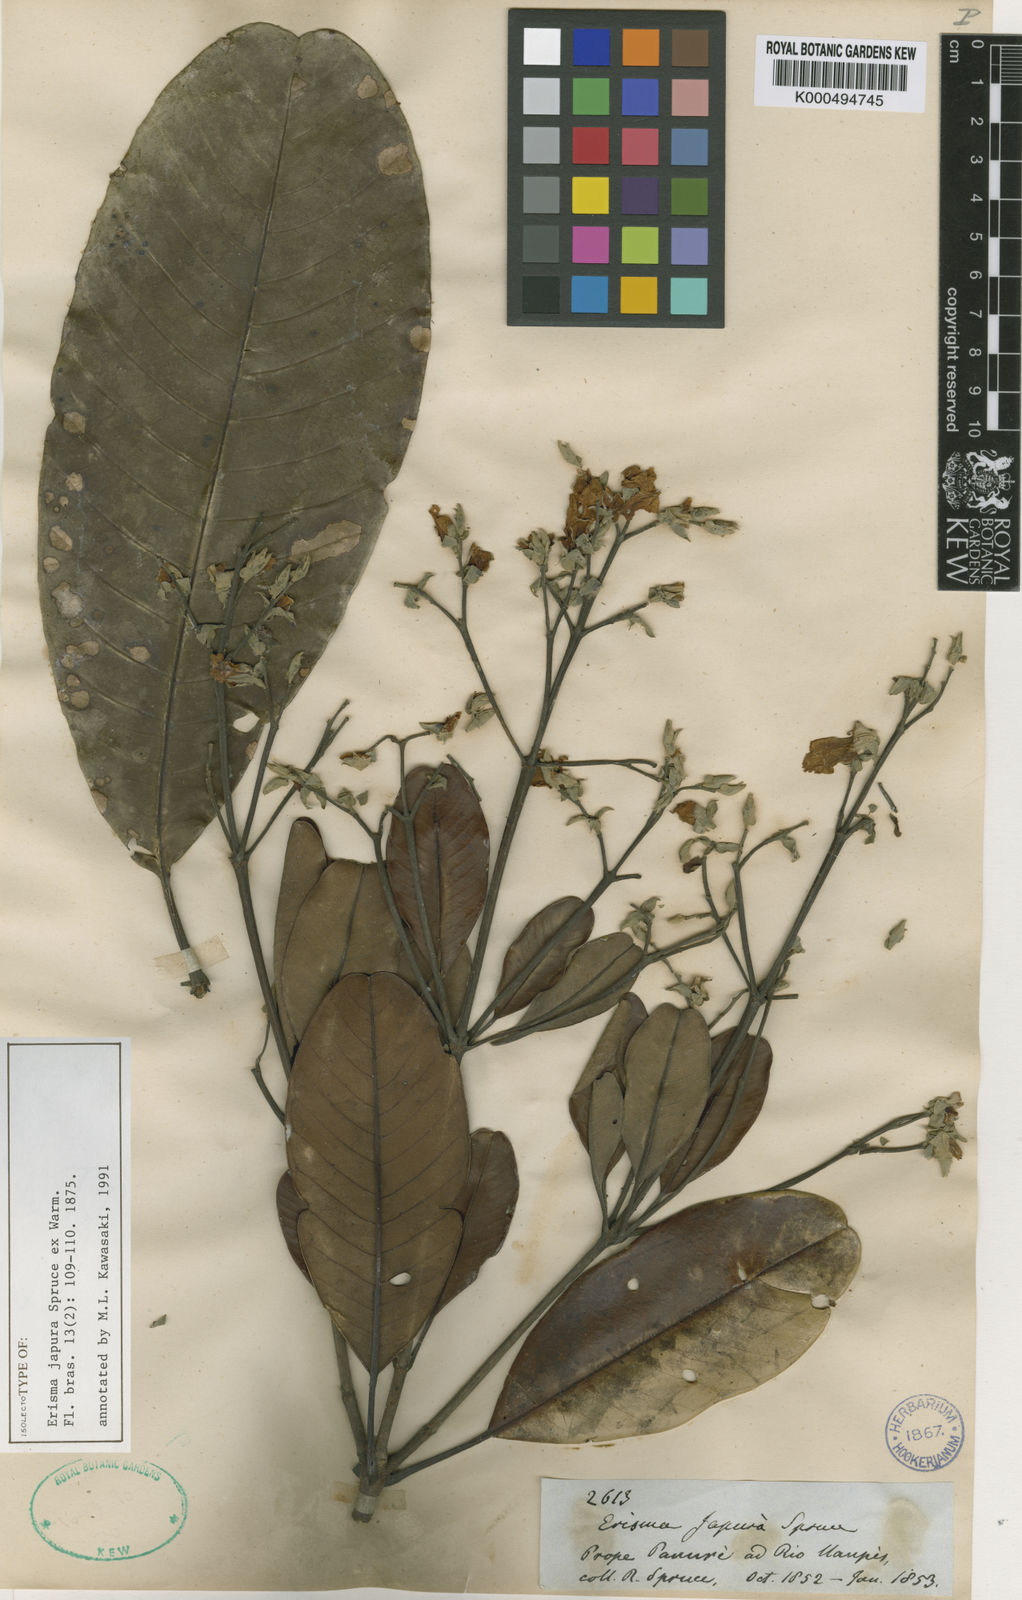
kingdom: Plantae
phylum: Tracheophyta
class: Magnoliopsida
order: Myrtales
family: Vochysiaceae
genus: Erisma
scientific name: Erisma japura
